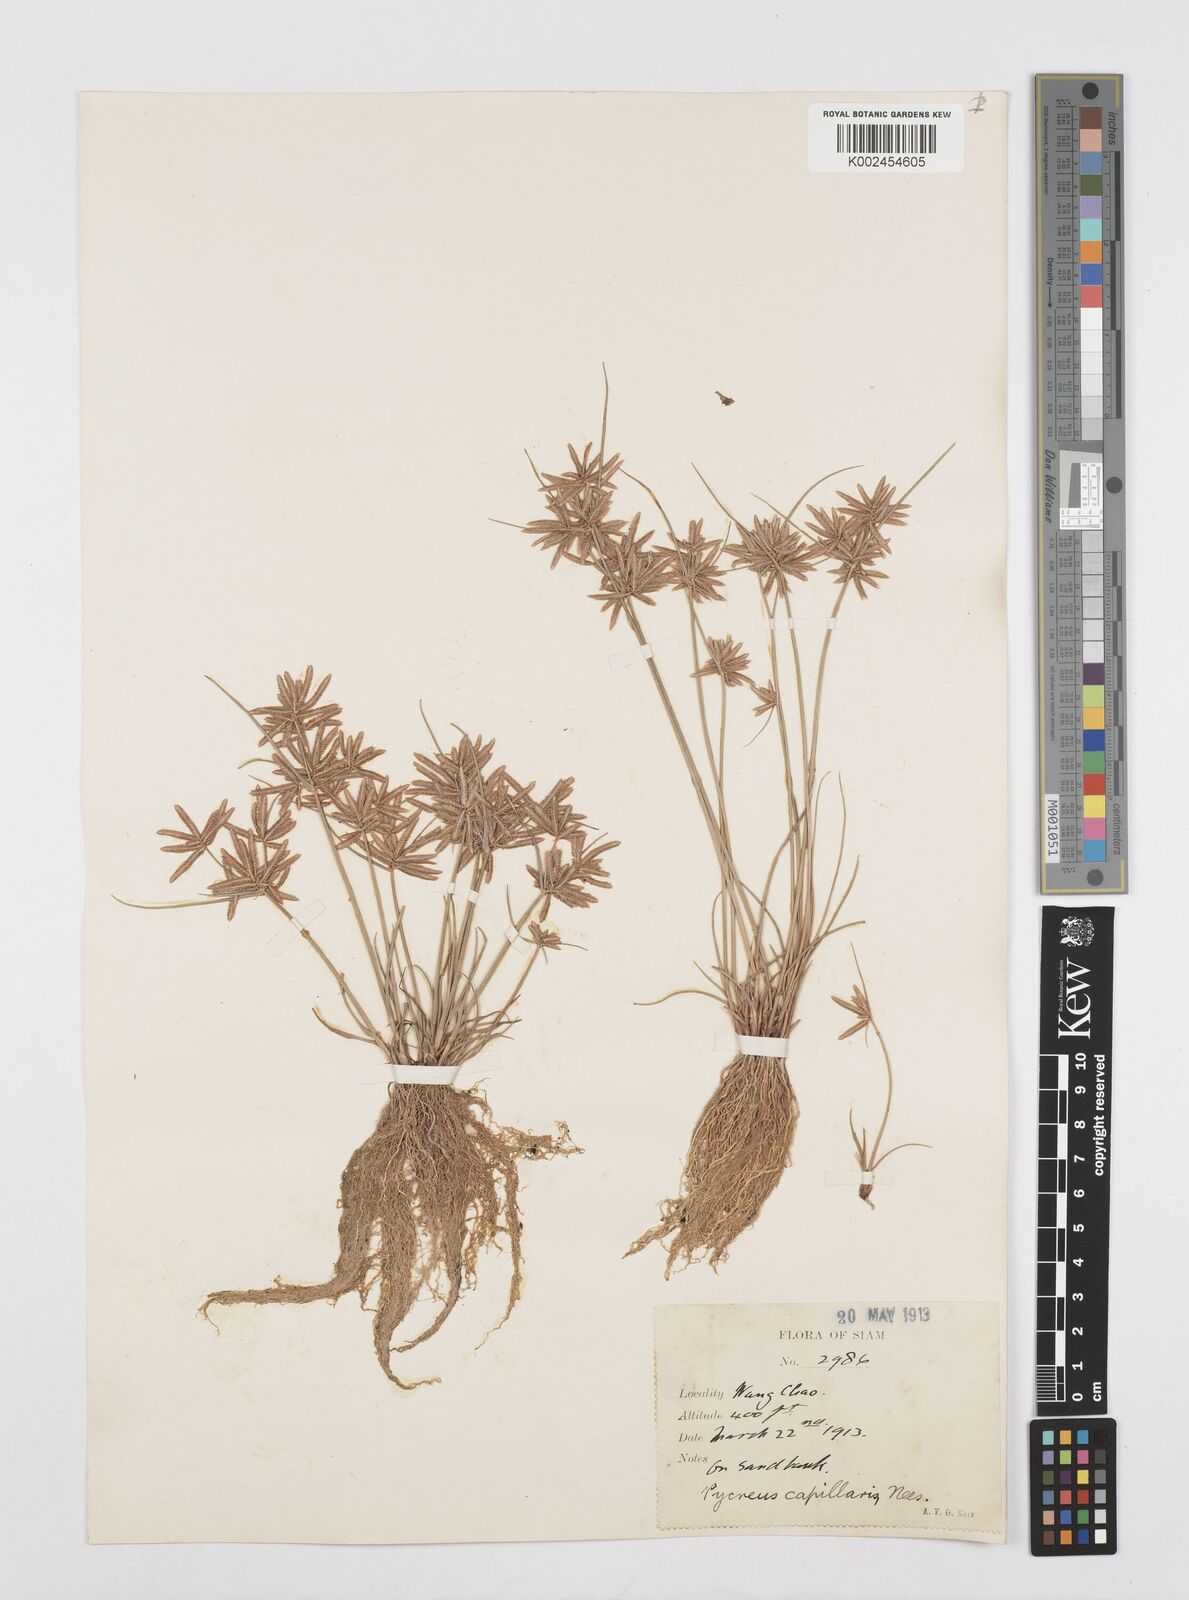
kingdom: Plantae
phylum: Tracheophyta
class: Liliopsida
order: Poales
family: Cyperaceae
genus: Cyperus
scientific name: Cyperus flavidus
